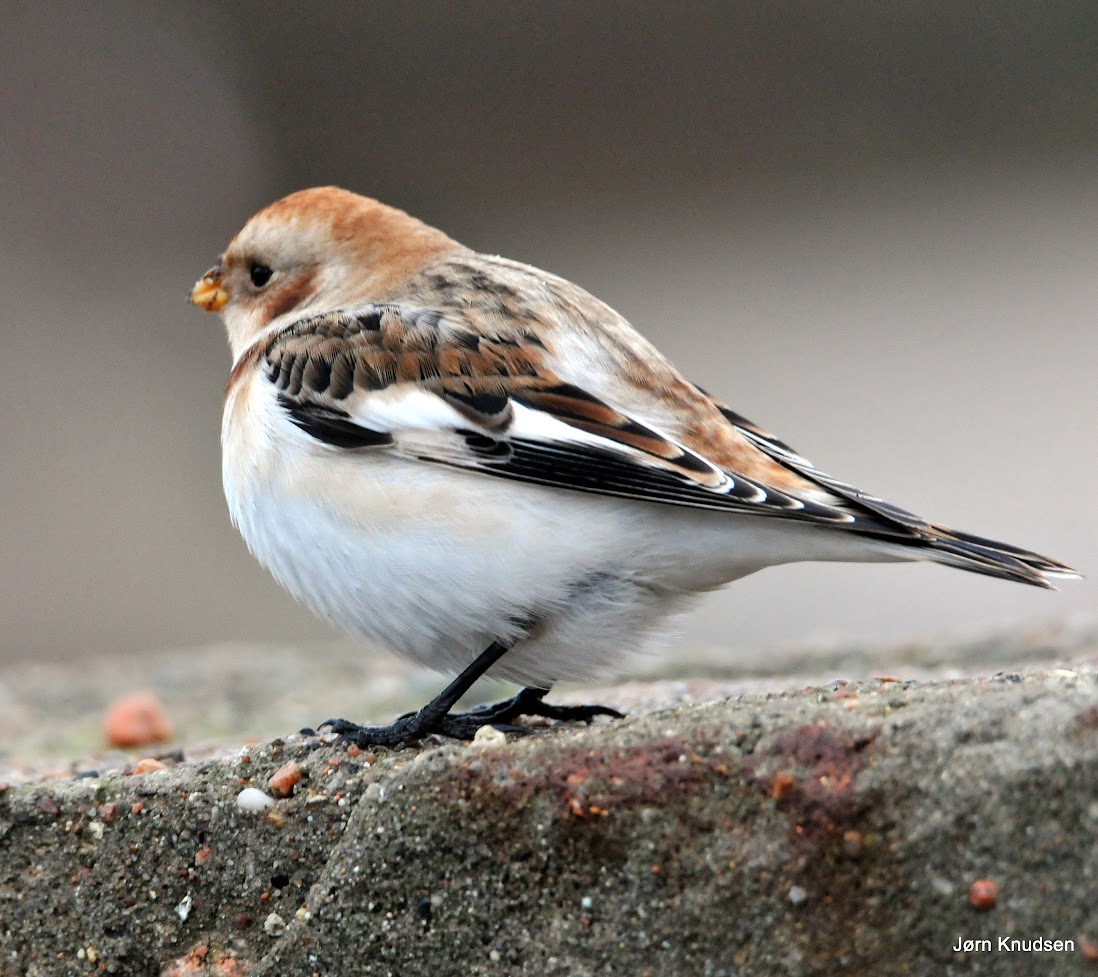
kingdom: Animalia
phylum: Chordata
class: Aves
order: Passeriformes
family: Calcariidae
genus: Plectrophenax
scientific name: Plectrophenax nivalis
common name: Snespurv
